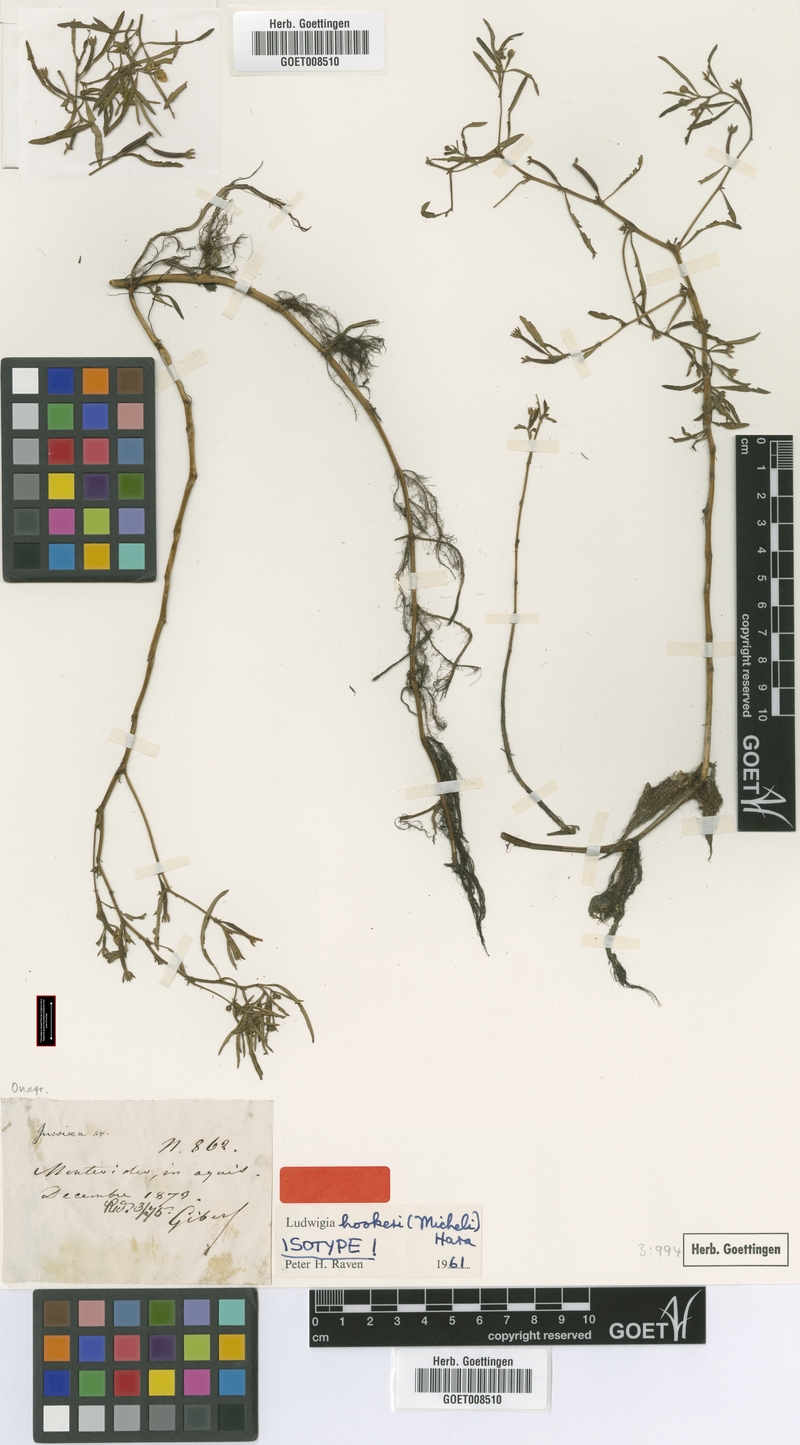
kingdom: Plantae
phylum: Tracheophyta
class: Magnoliopsida
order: Myrtales
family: Onagraceae
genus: Ludwigia
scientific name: Ludwigia hookeri
